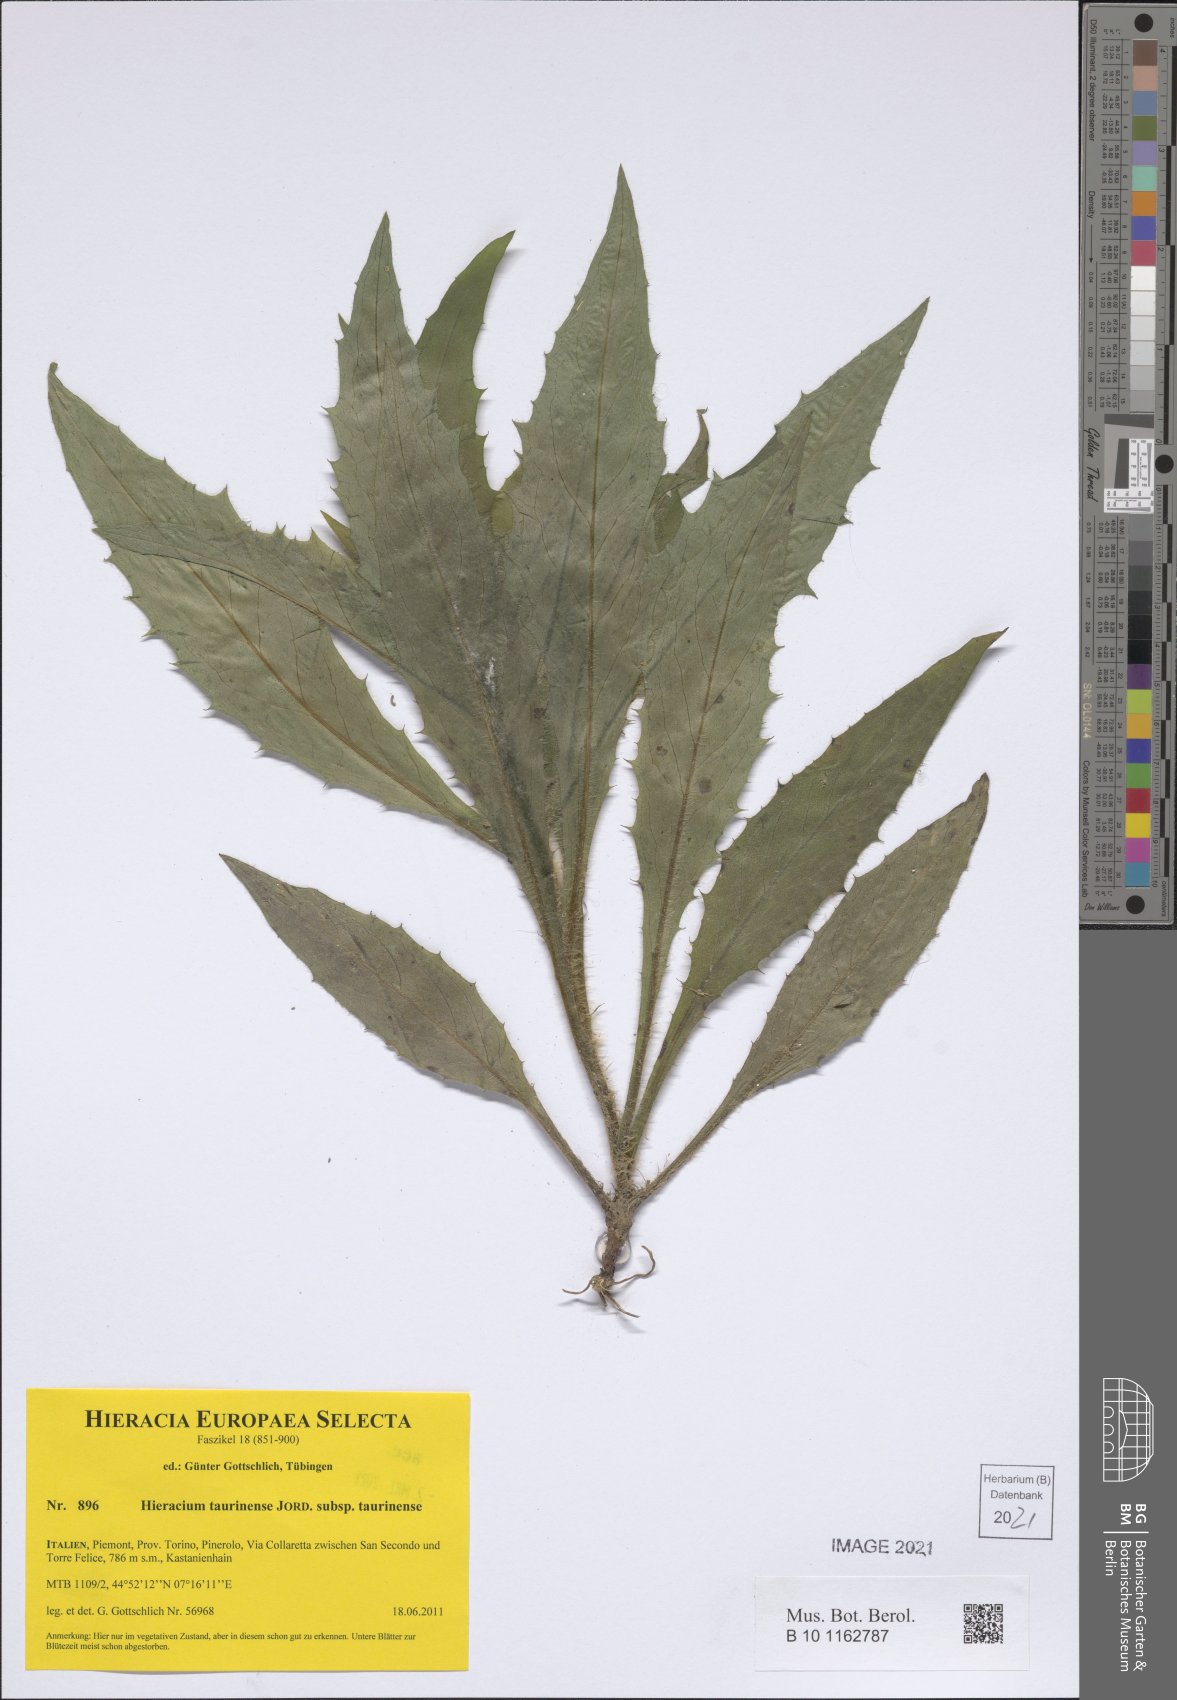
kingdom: Plantae
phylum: Tracheophyta
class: Magnoliopsida
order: Asterales
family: Asteraceae
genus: Hieracium
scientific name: Hieracium taurinense
